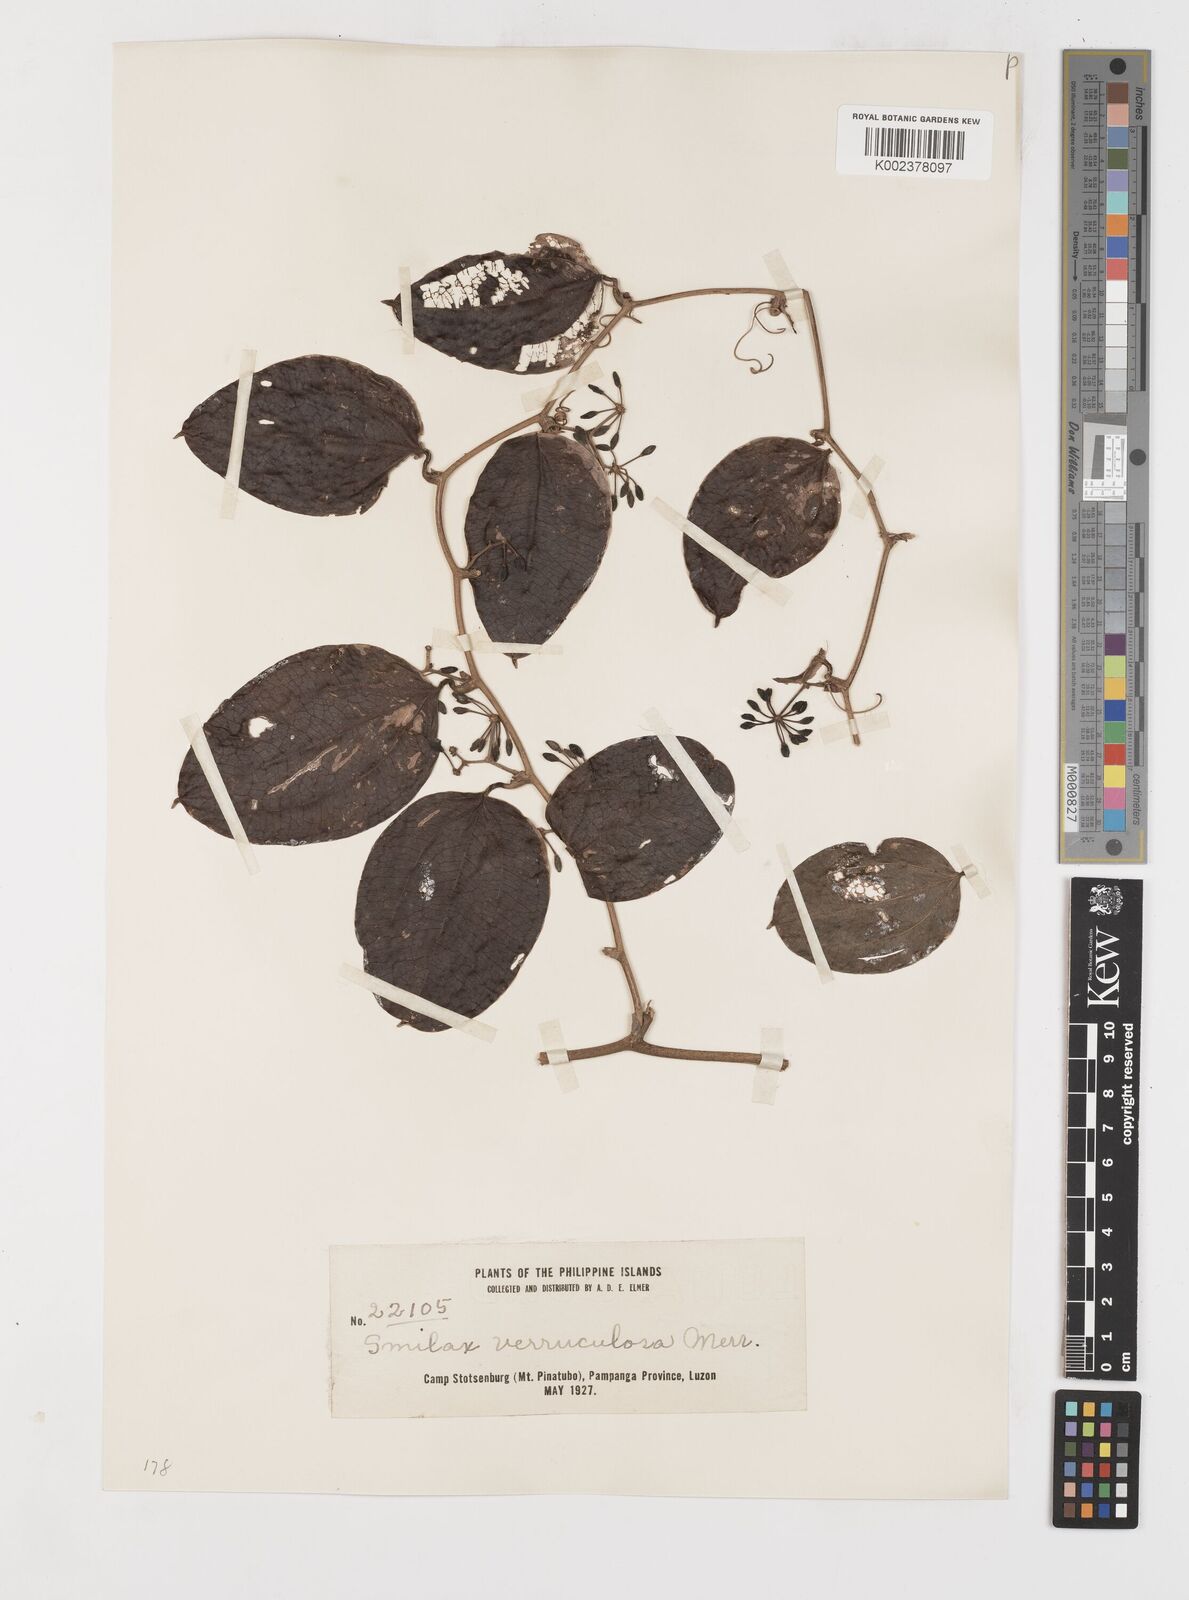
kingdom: Plantae
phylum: Tracheophyta
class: Liliopsida
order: Liliales
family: Smilacaceae
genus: Smilax
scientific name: Smilax aspericaulis
